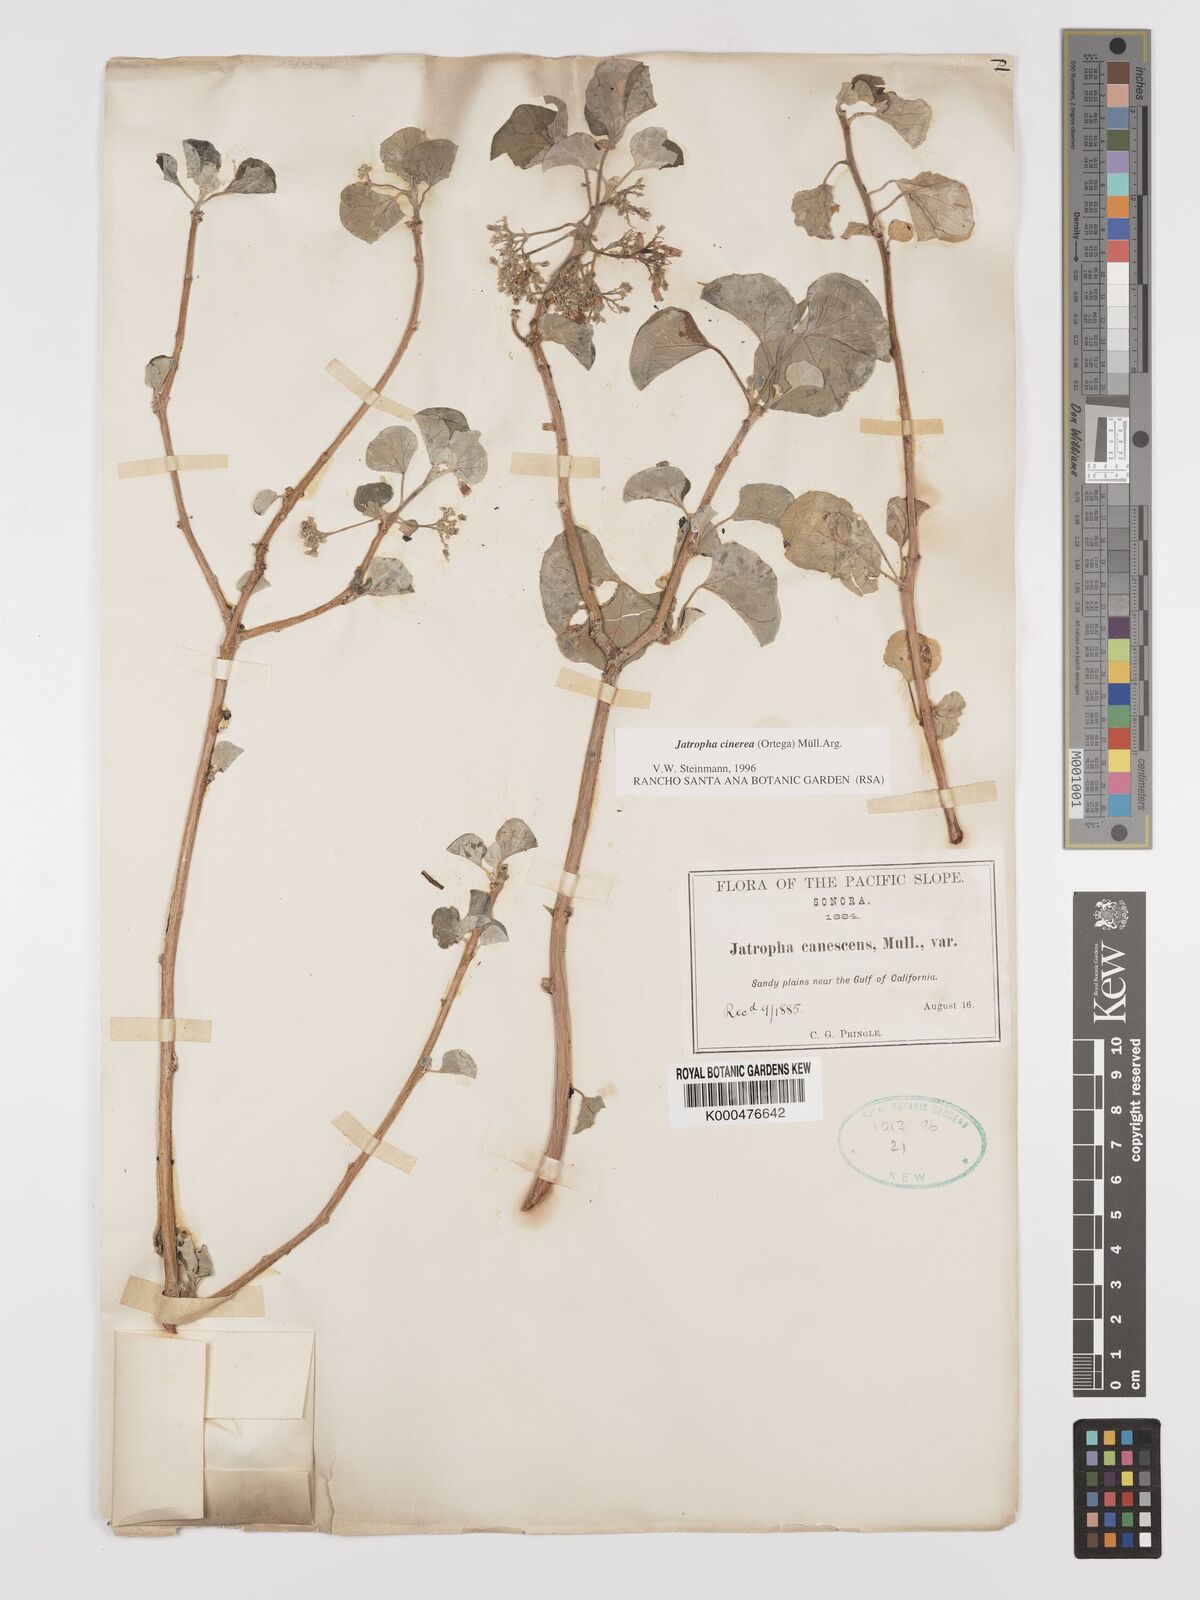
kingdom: Plantae
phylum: Tracheophyta
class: Magnoliopsida
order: Malpighiales
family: Euphorbiaceae
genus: Jatropha
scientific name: Jatropha
